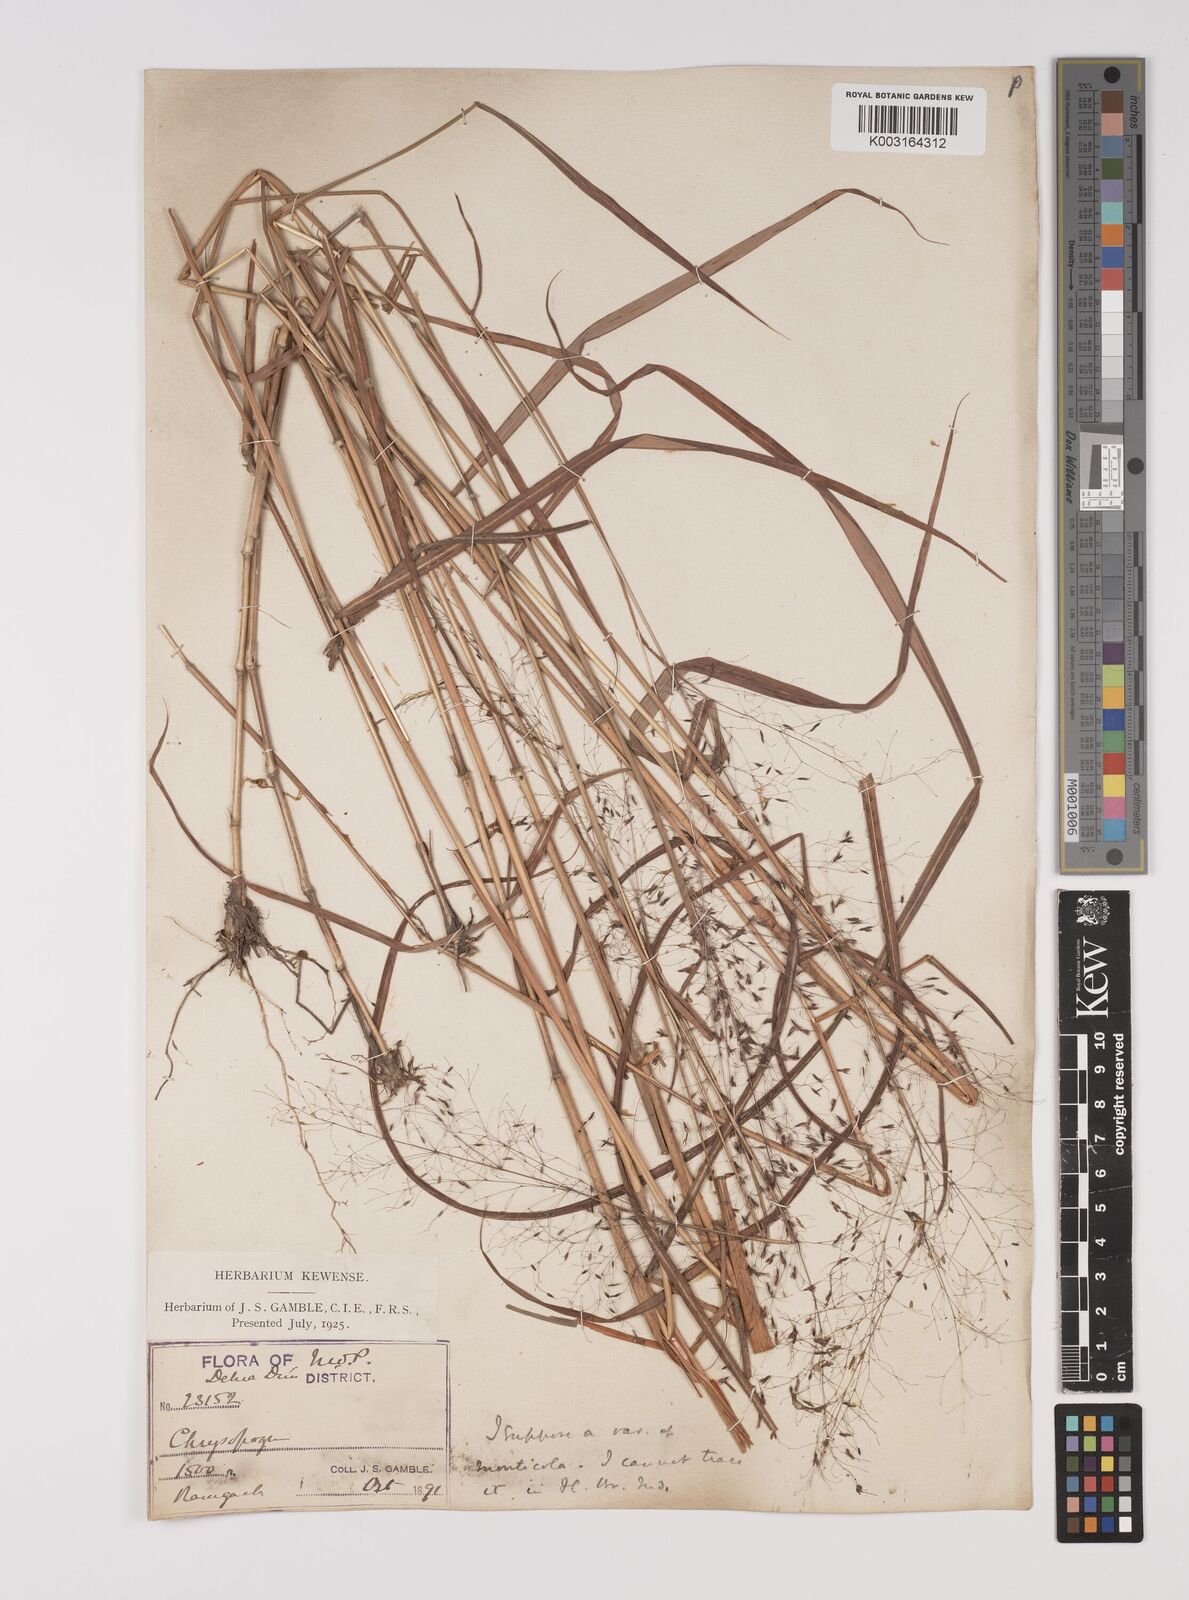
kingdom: Plantae
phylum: Tracheophyta
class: Liliopsida
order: Poales
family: Poaceae
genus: Capillipedium
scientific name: Capillipedium parviflorum
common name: Golden-beard
